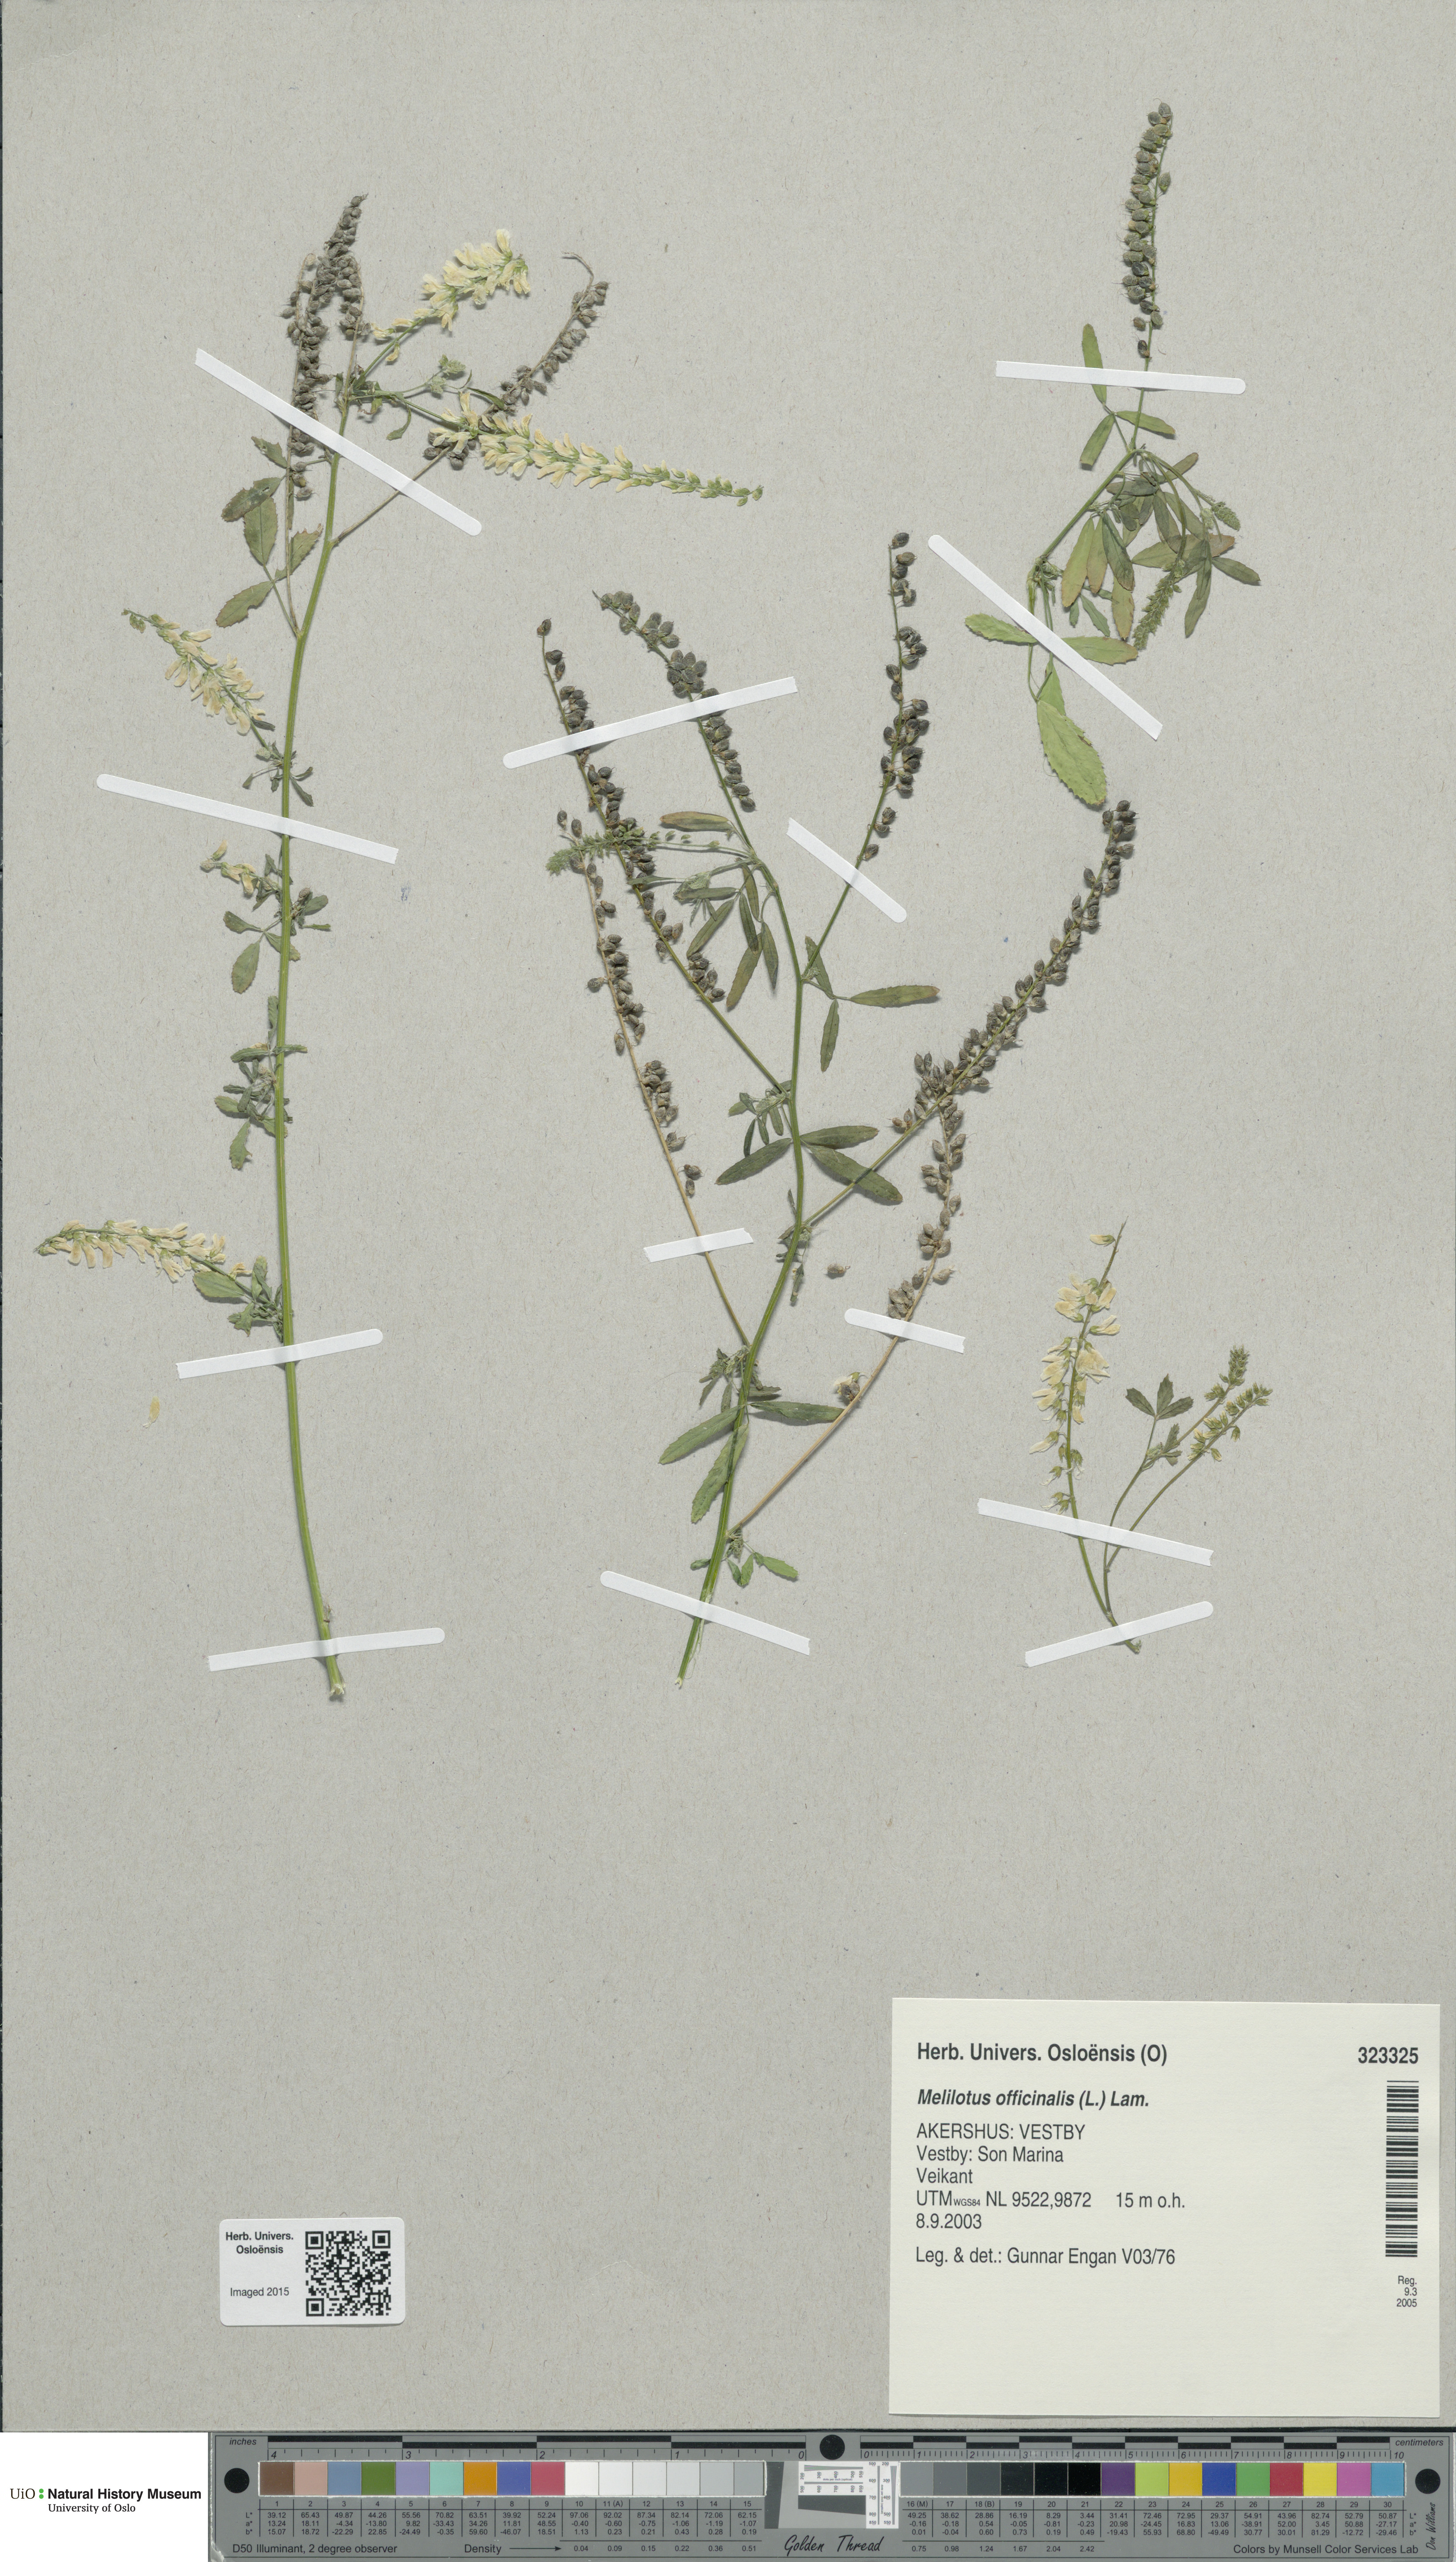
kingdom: Plantae
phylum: Tracheophyta
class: Magnoliopsida
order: Fabales
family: Fabaceae
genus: Melilotus
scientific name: Melilotus officinalis
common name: Sweetclover
